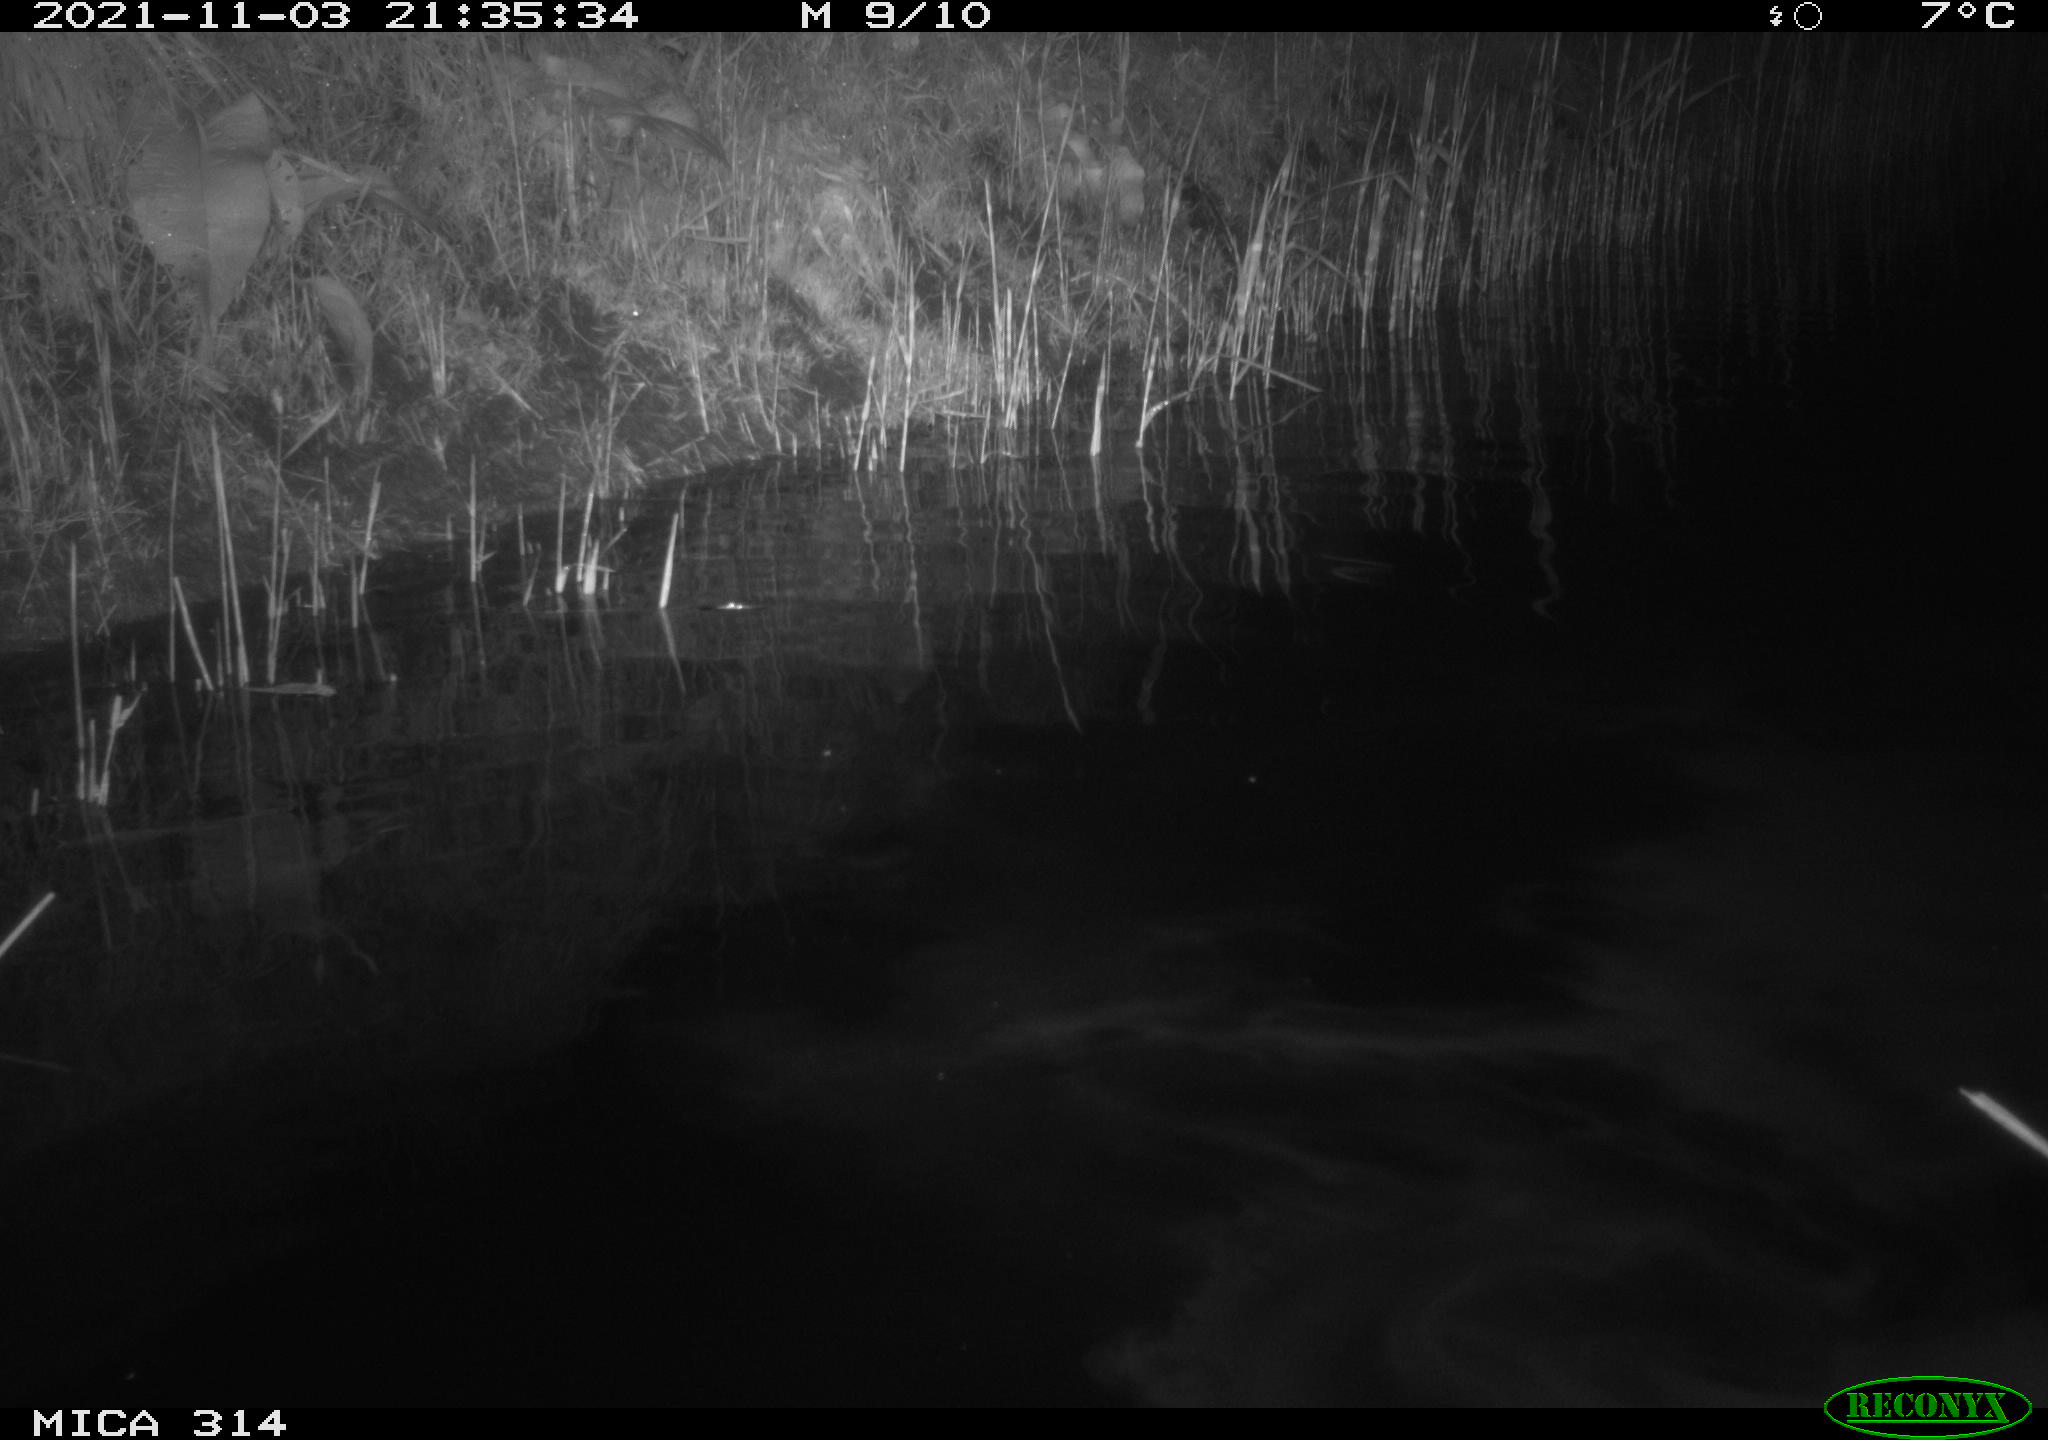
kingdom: Animalia
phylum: Chordata
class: Mammalia
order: Rodentia
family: Cricetidae
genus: Ondatra
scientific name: Ondatra zibethicus
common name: Muskrat
